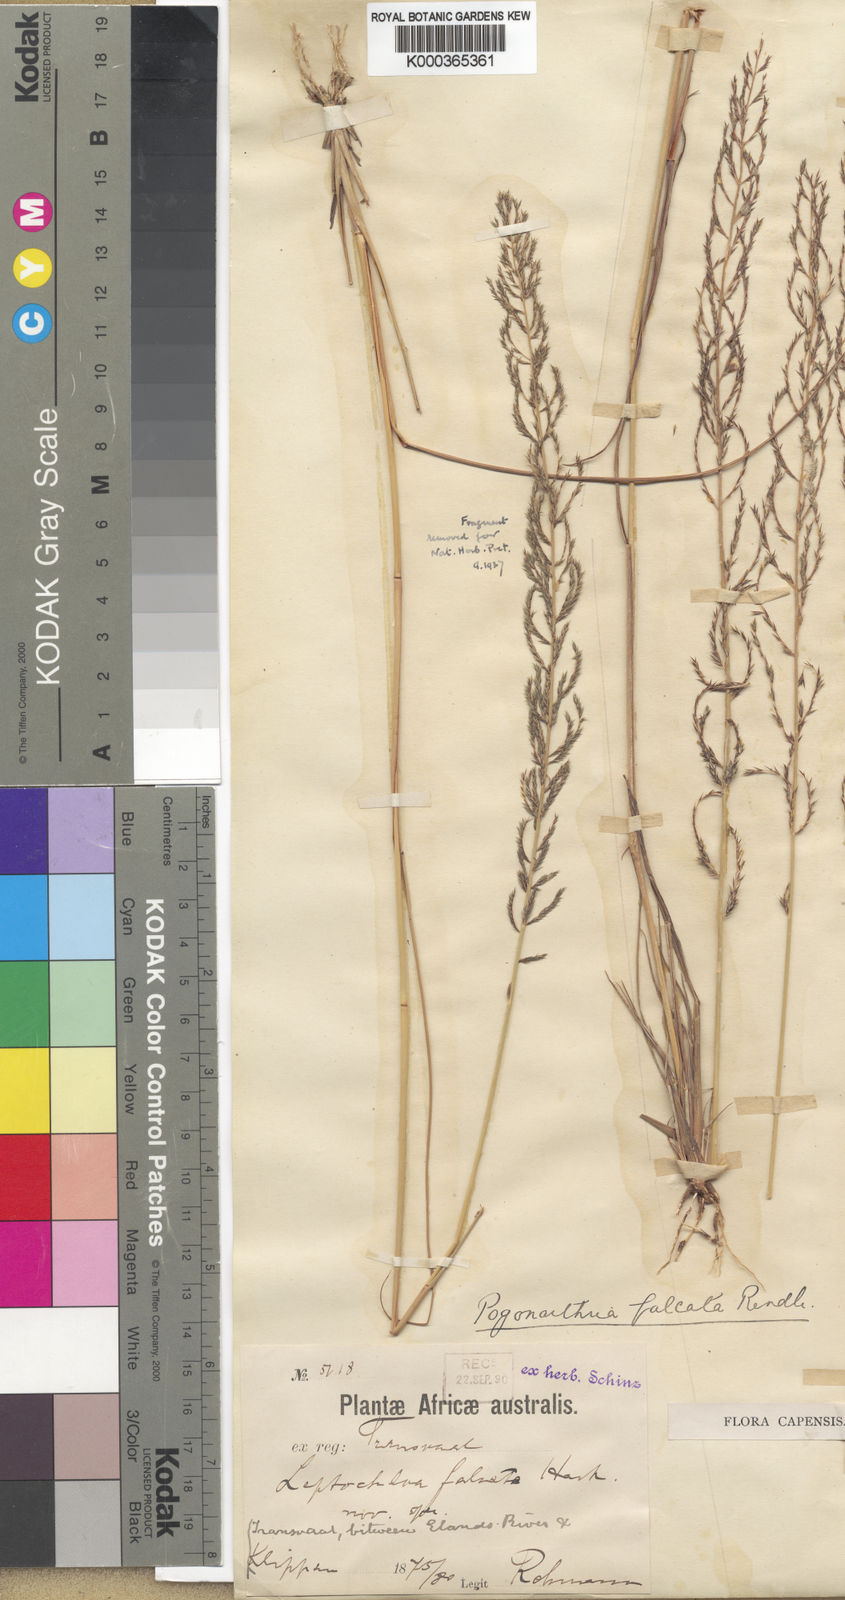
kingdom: Plantae
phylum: Tracheophyta
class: Liliopsida
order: Poales
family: Poaceae
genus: Pogonarthria
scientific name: Pogonarthria squarrosa
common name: Grass
